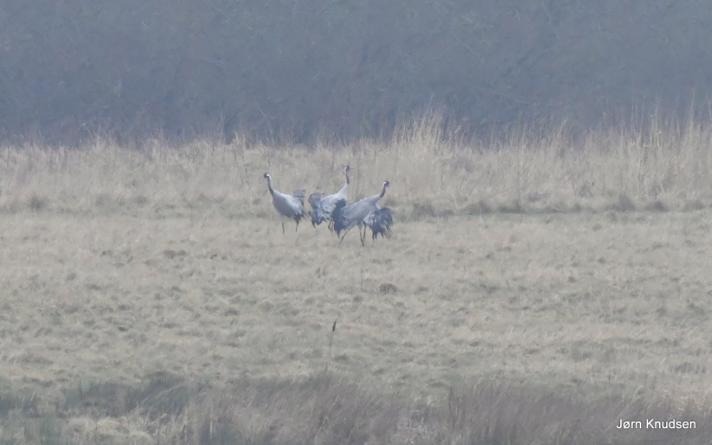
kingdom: Animalia
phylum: Chordata
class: Aves
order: Gruiformes
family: Gruidae
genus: Grus
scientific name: Grus grus
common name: Trane
